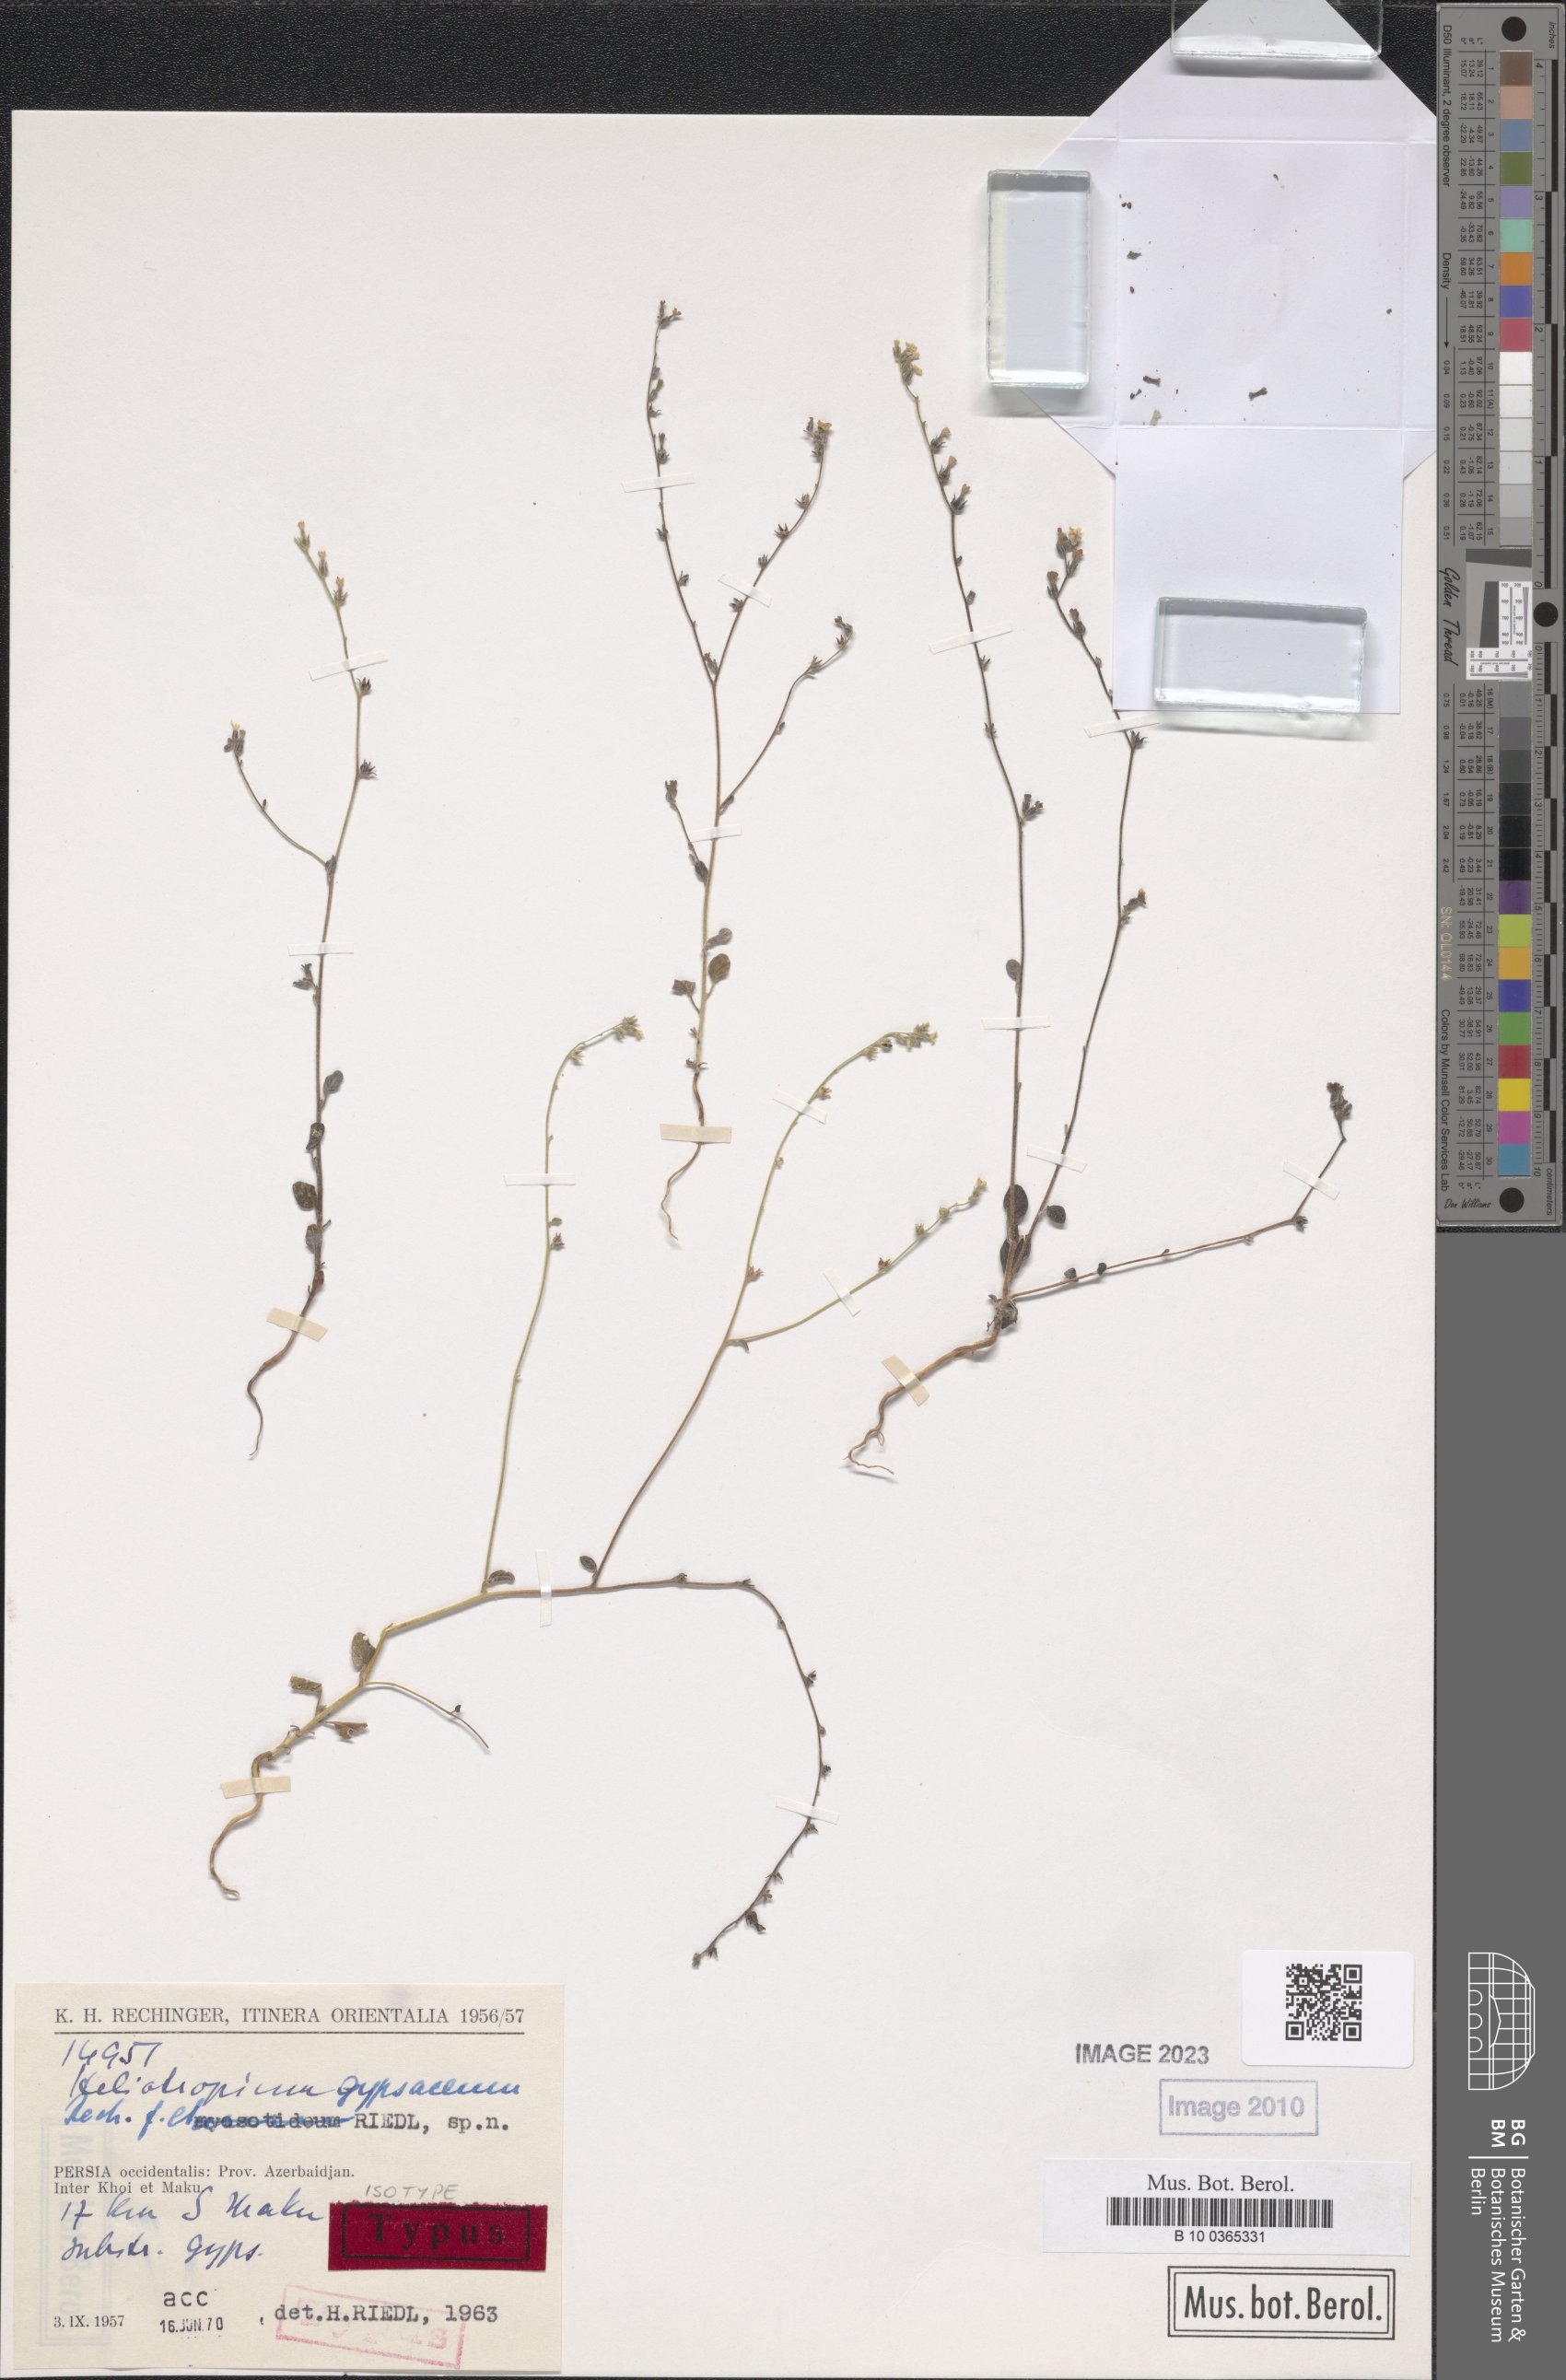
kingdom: Plantae
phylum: Tracheophyta
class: Magnoliopsida
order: Boraginales
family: Heliotropiaceae
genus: Heliotropium
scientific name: Heliotropium gypsaceum
